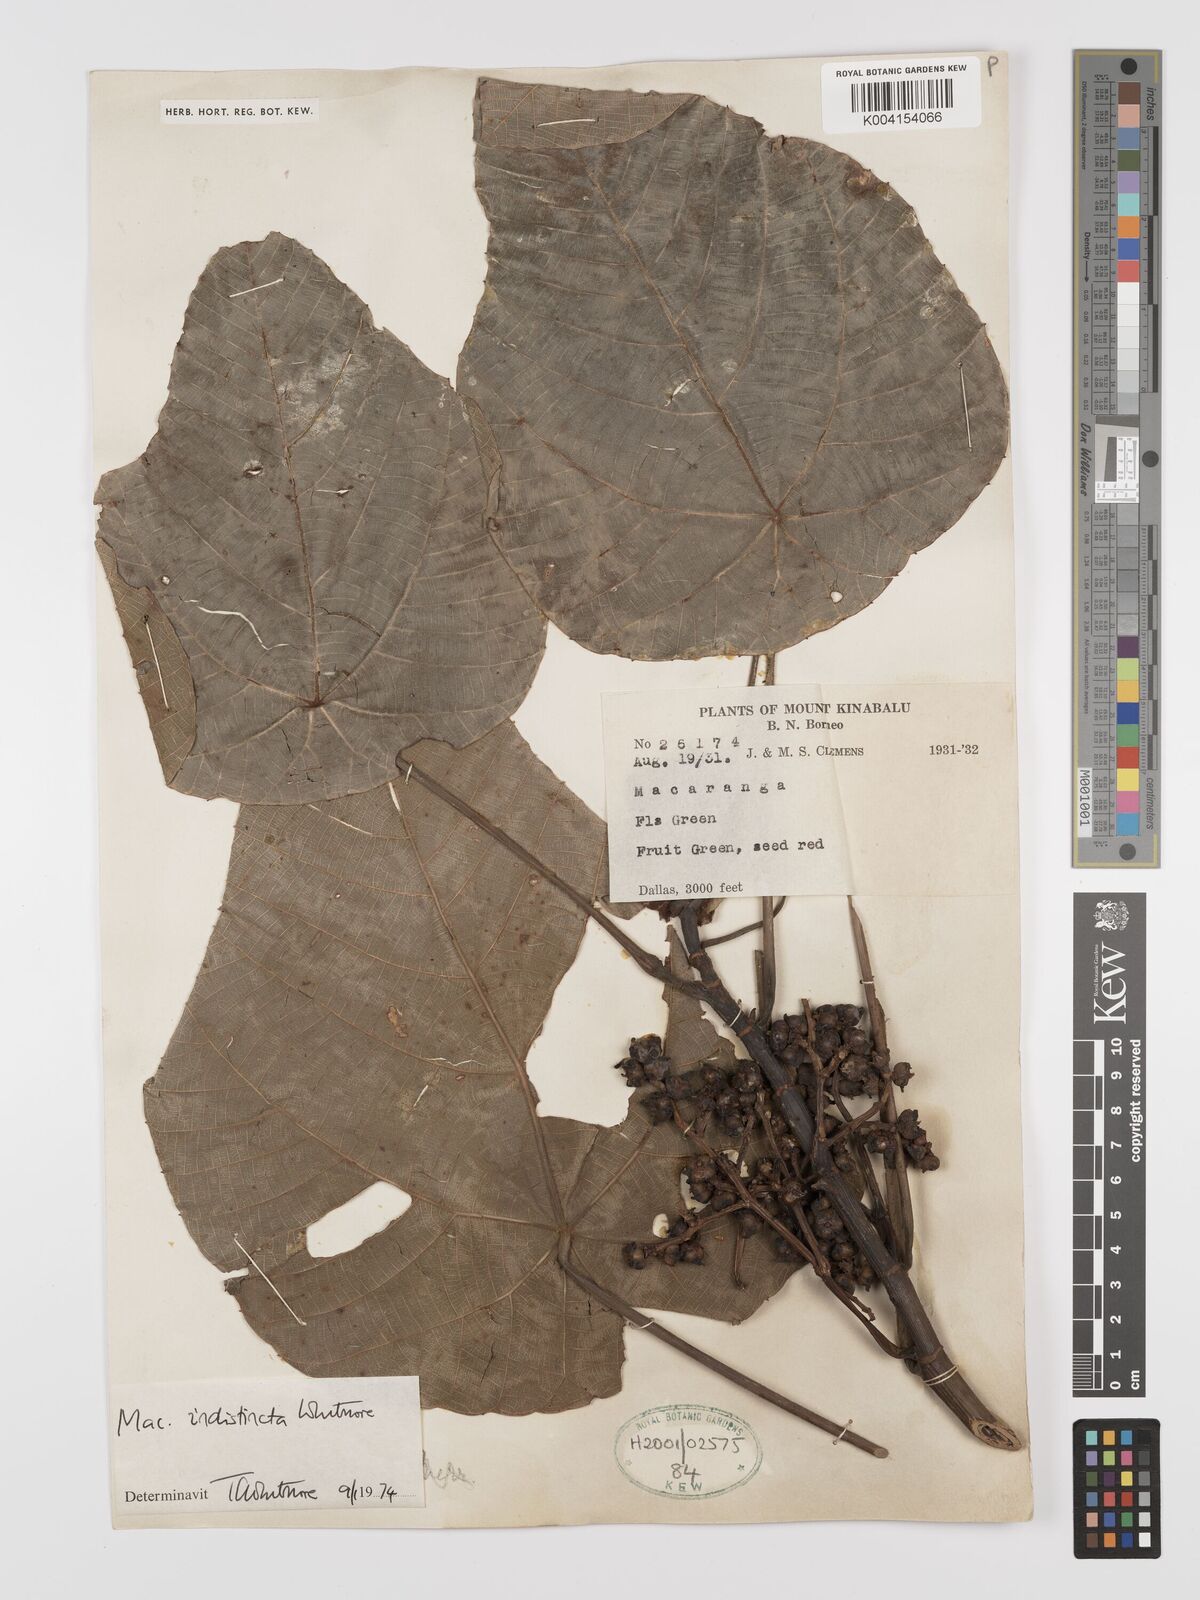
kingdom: Plantae
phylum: Tracheophyta
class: Magnoliopsida
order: Malpighiales
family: Euphorbiaceae
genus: Macaranga
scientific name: Macaranga indistincta
